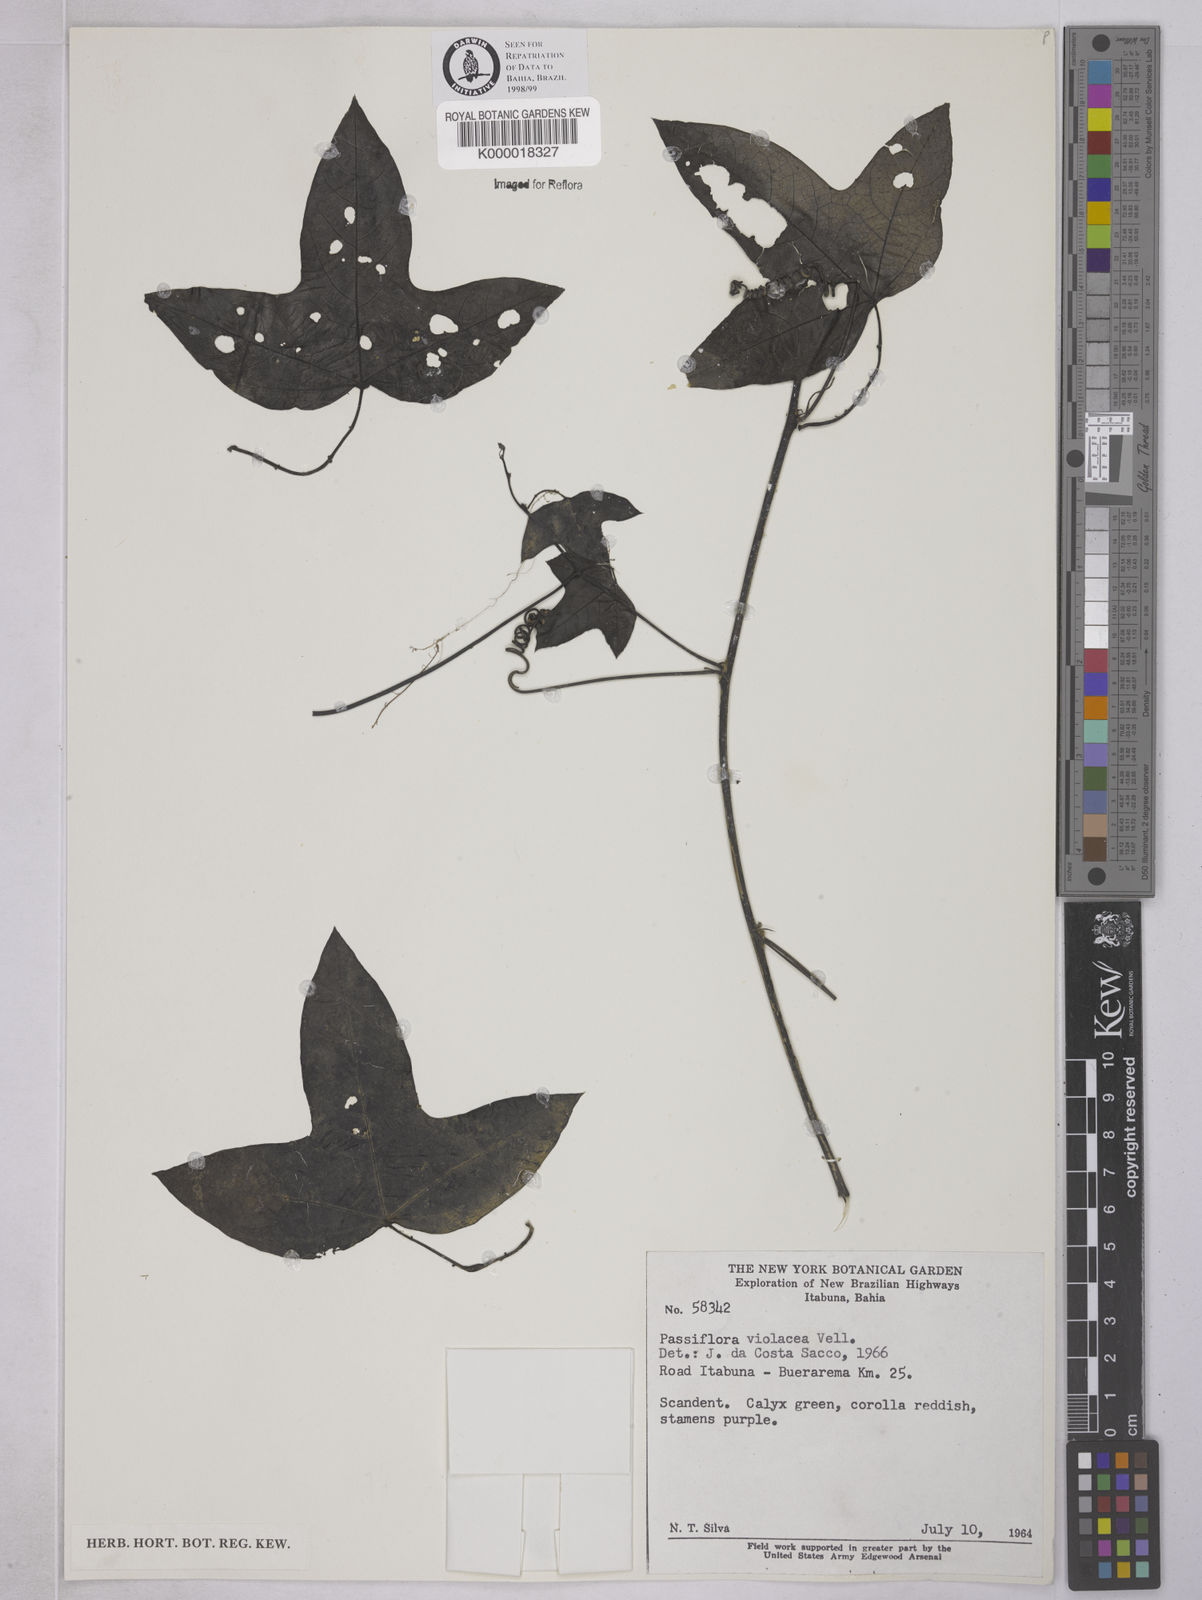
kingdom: Plantae
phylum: Tracheophyta
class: Magnoliopsida
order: Malpighiales
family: Passifloraceae
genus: Passiflora
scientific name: Passiflora amethystina
